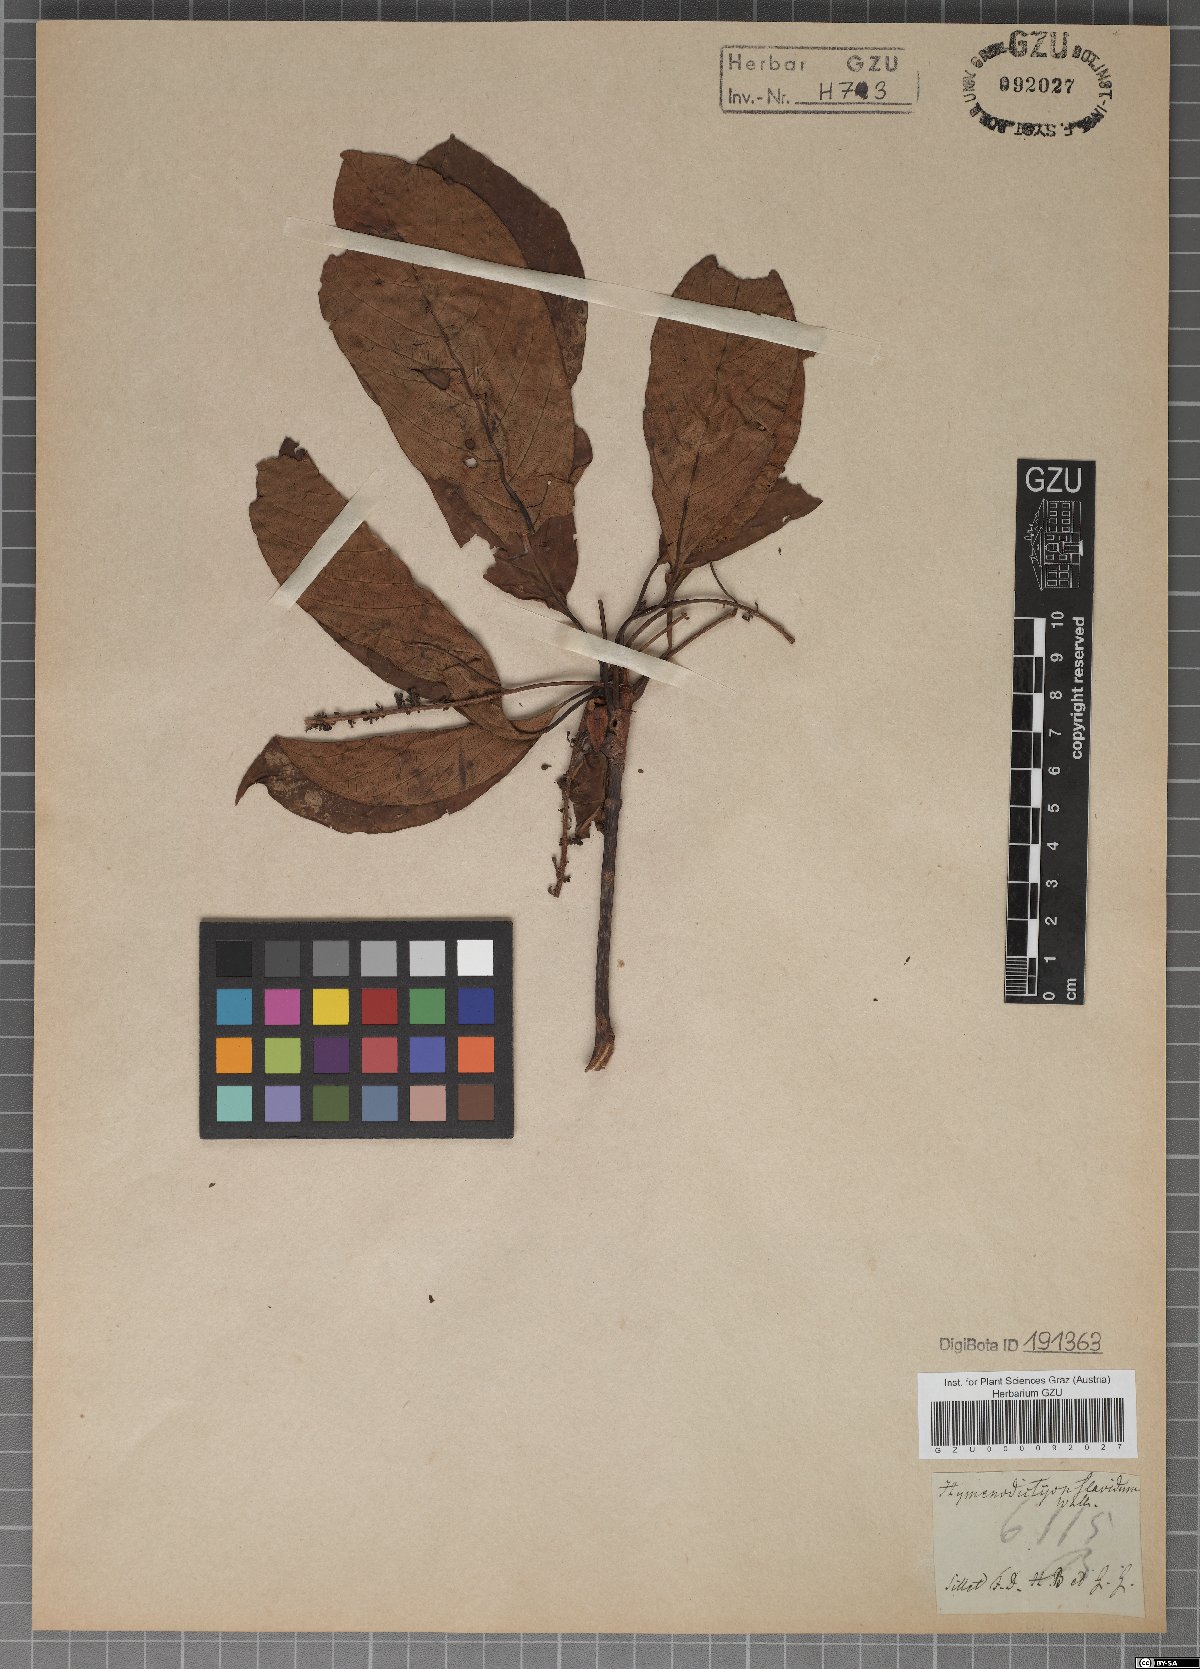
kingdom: Plantae
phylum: Tracheophyta
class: Magnoliopsida
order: Gentianales
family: Rubiaceae
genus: Hymenodictyon
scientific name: Hymenodictyon flaccidum
